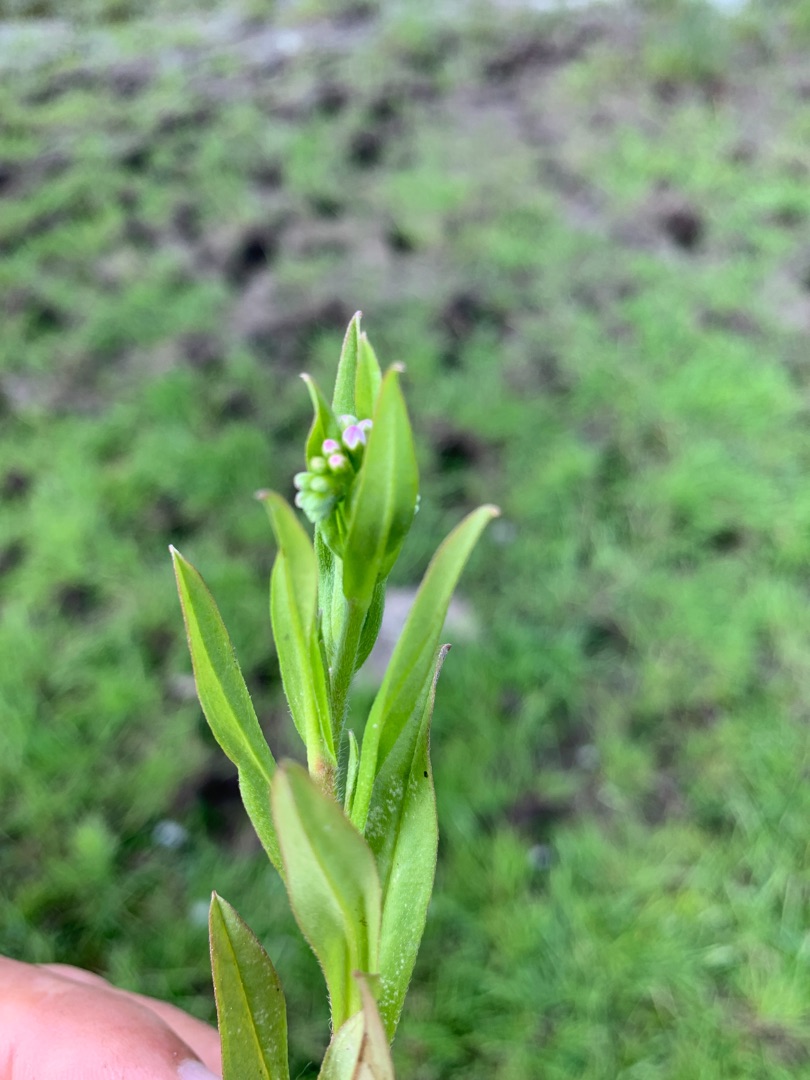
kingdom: Plantae
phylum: Tracheophyta
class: Magnoliopsida
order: Boraginales
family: Boraginaceae
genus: Myosotis
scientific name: Myosotis scorpioides
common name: Eng-forglemmigej
